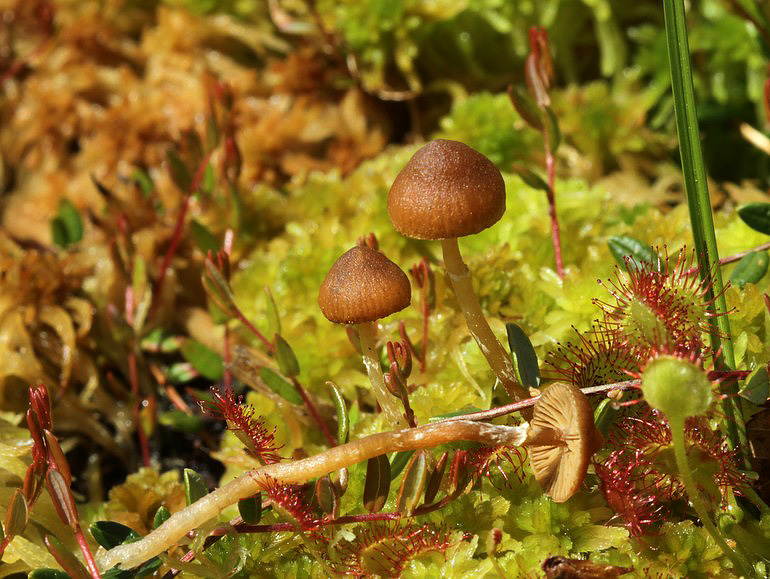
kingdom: Fungi
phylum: Basidiomycota
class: Agaricomycetes
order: Agaricales
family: Hymenogastraceae
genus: Galerina
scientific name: Galerina paludosa
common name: mose-hjelmhat
